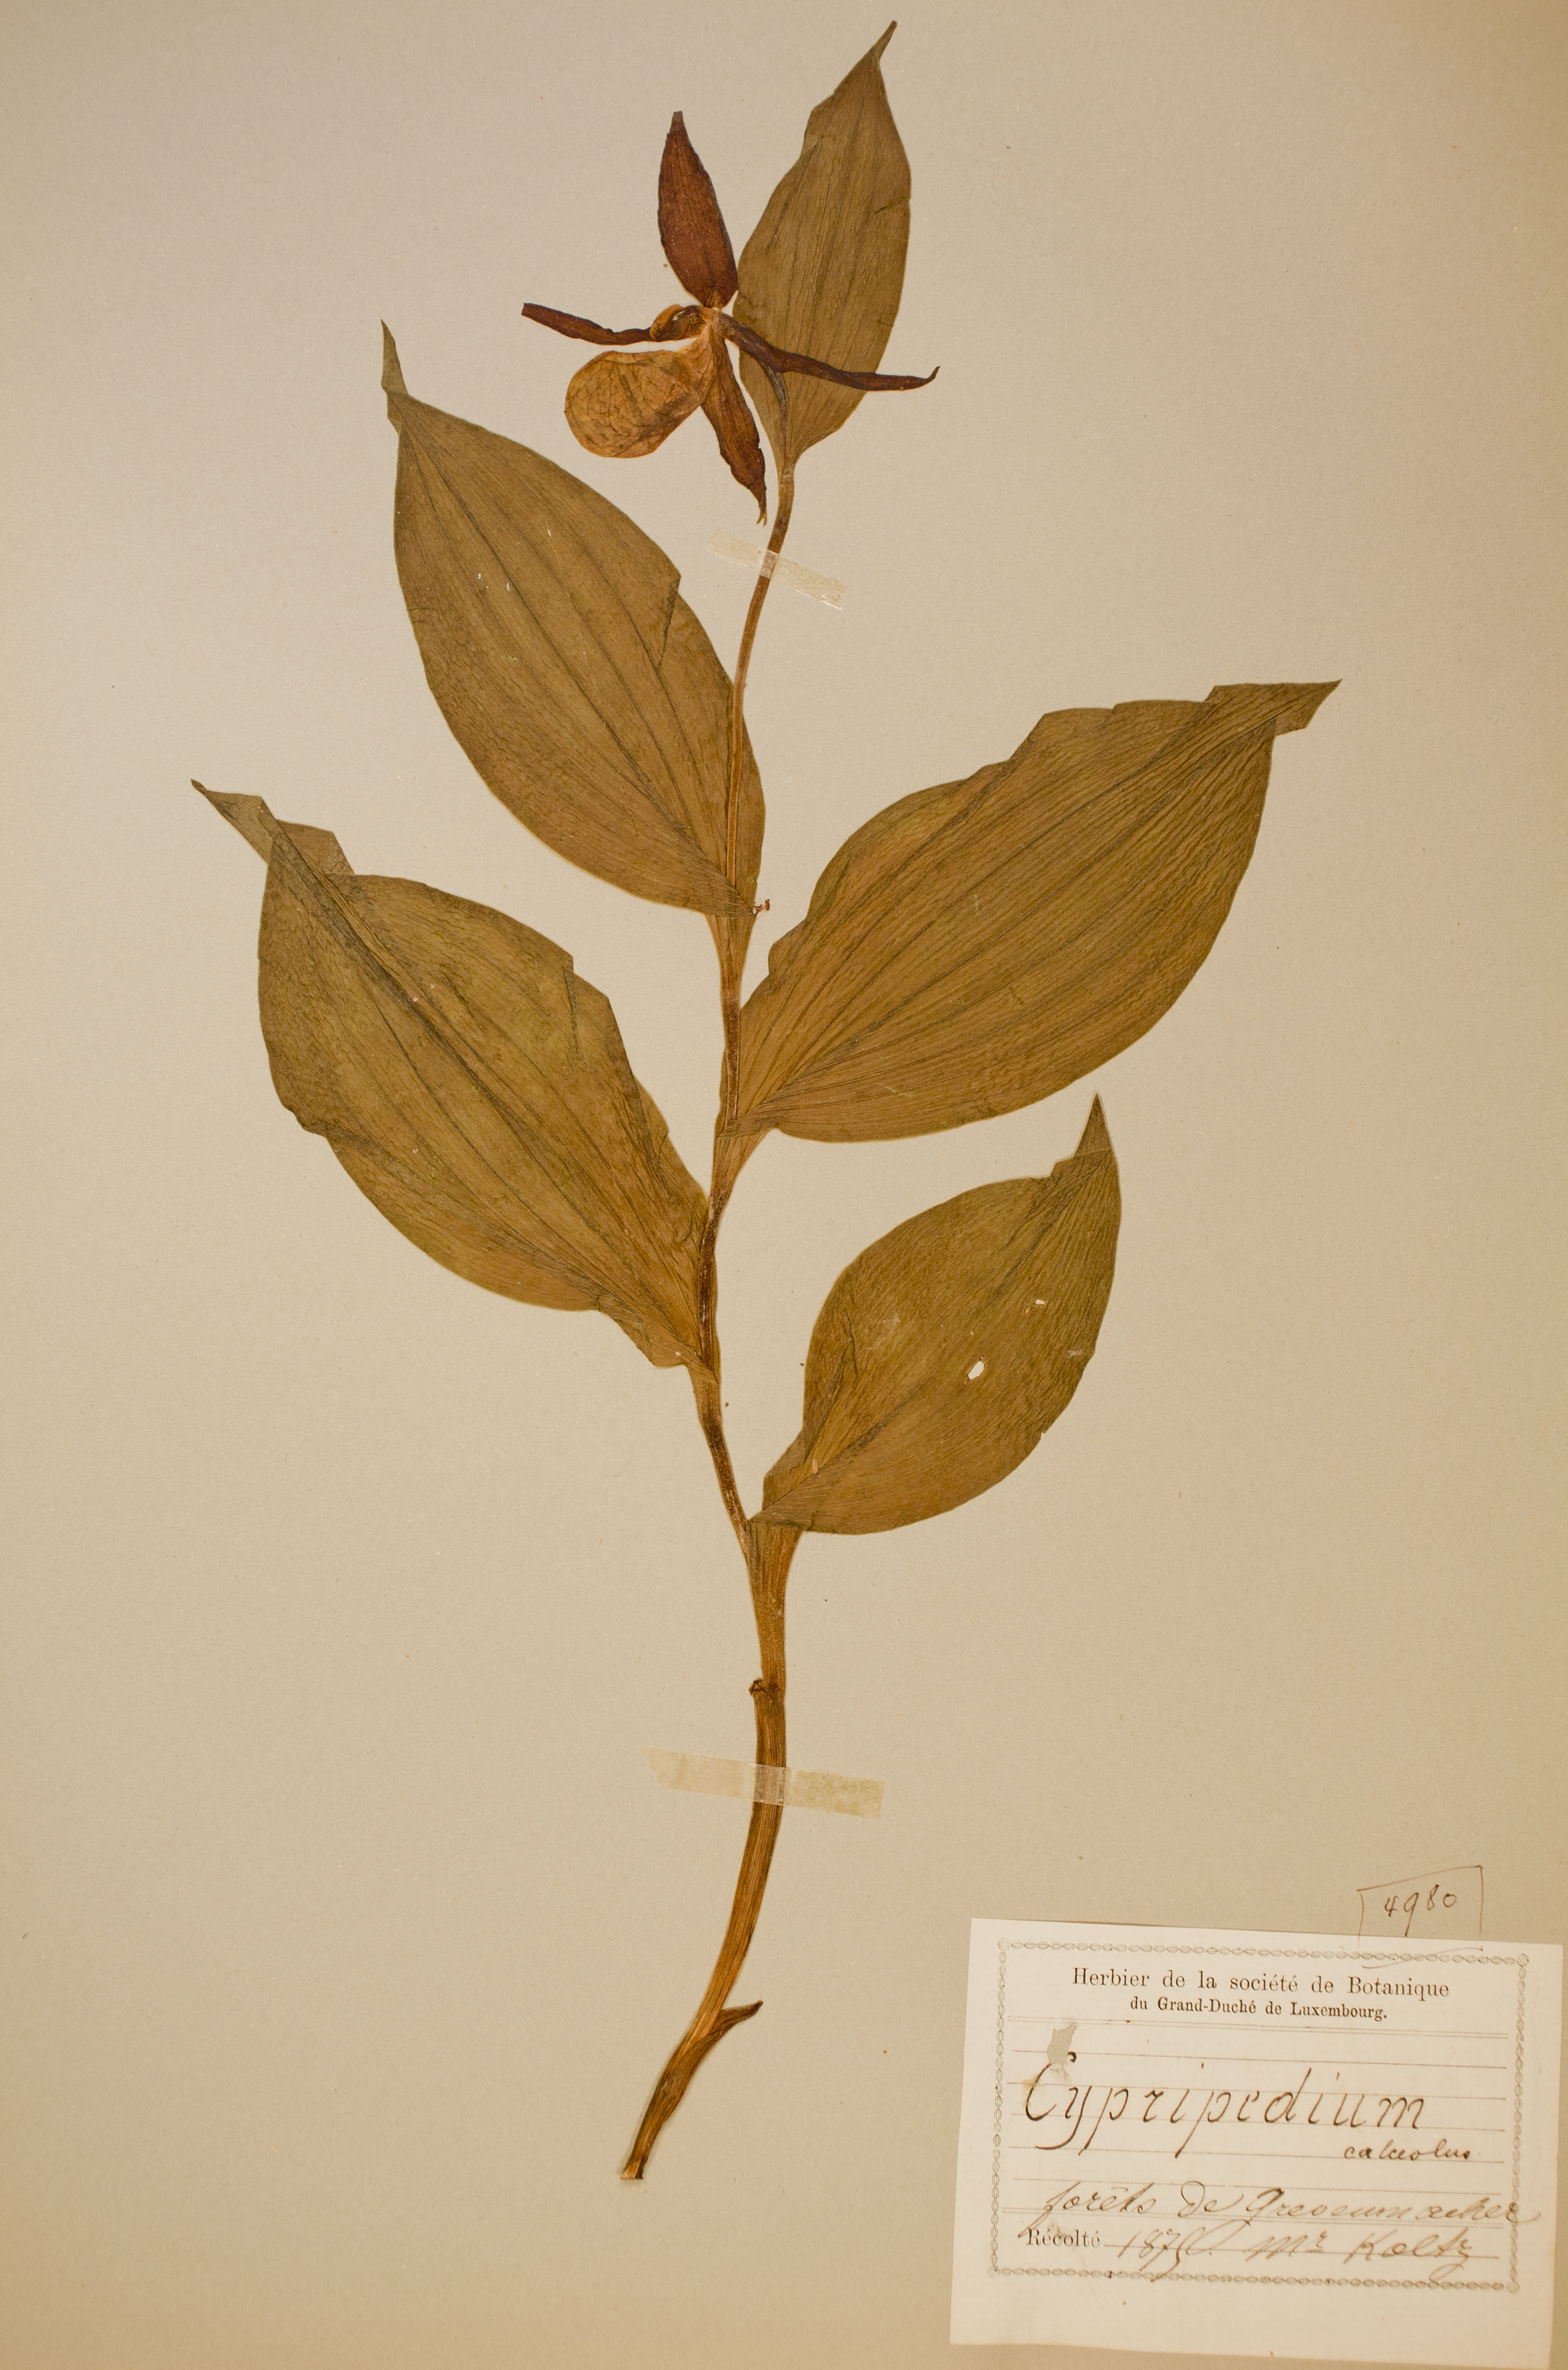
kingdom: Plantae
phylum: Tracheophyta
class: Liliopsida
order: Asparagales
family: Orchidaceae
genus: Cypripedium
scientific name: Cypripedium calceolus
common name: Lady's-slipper
